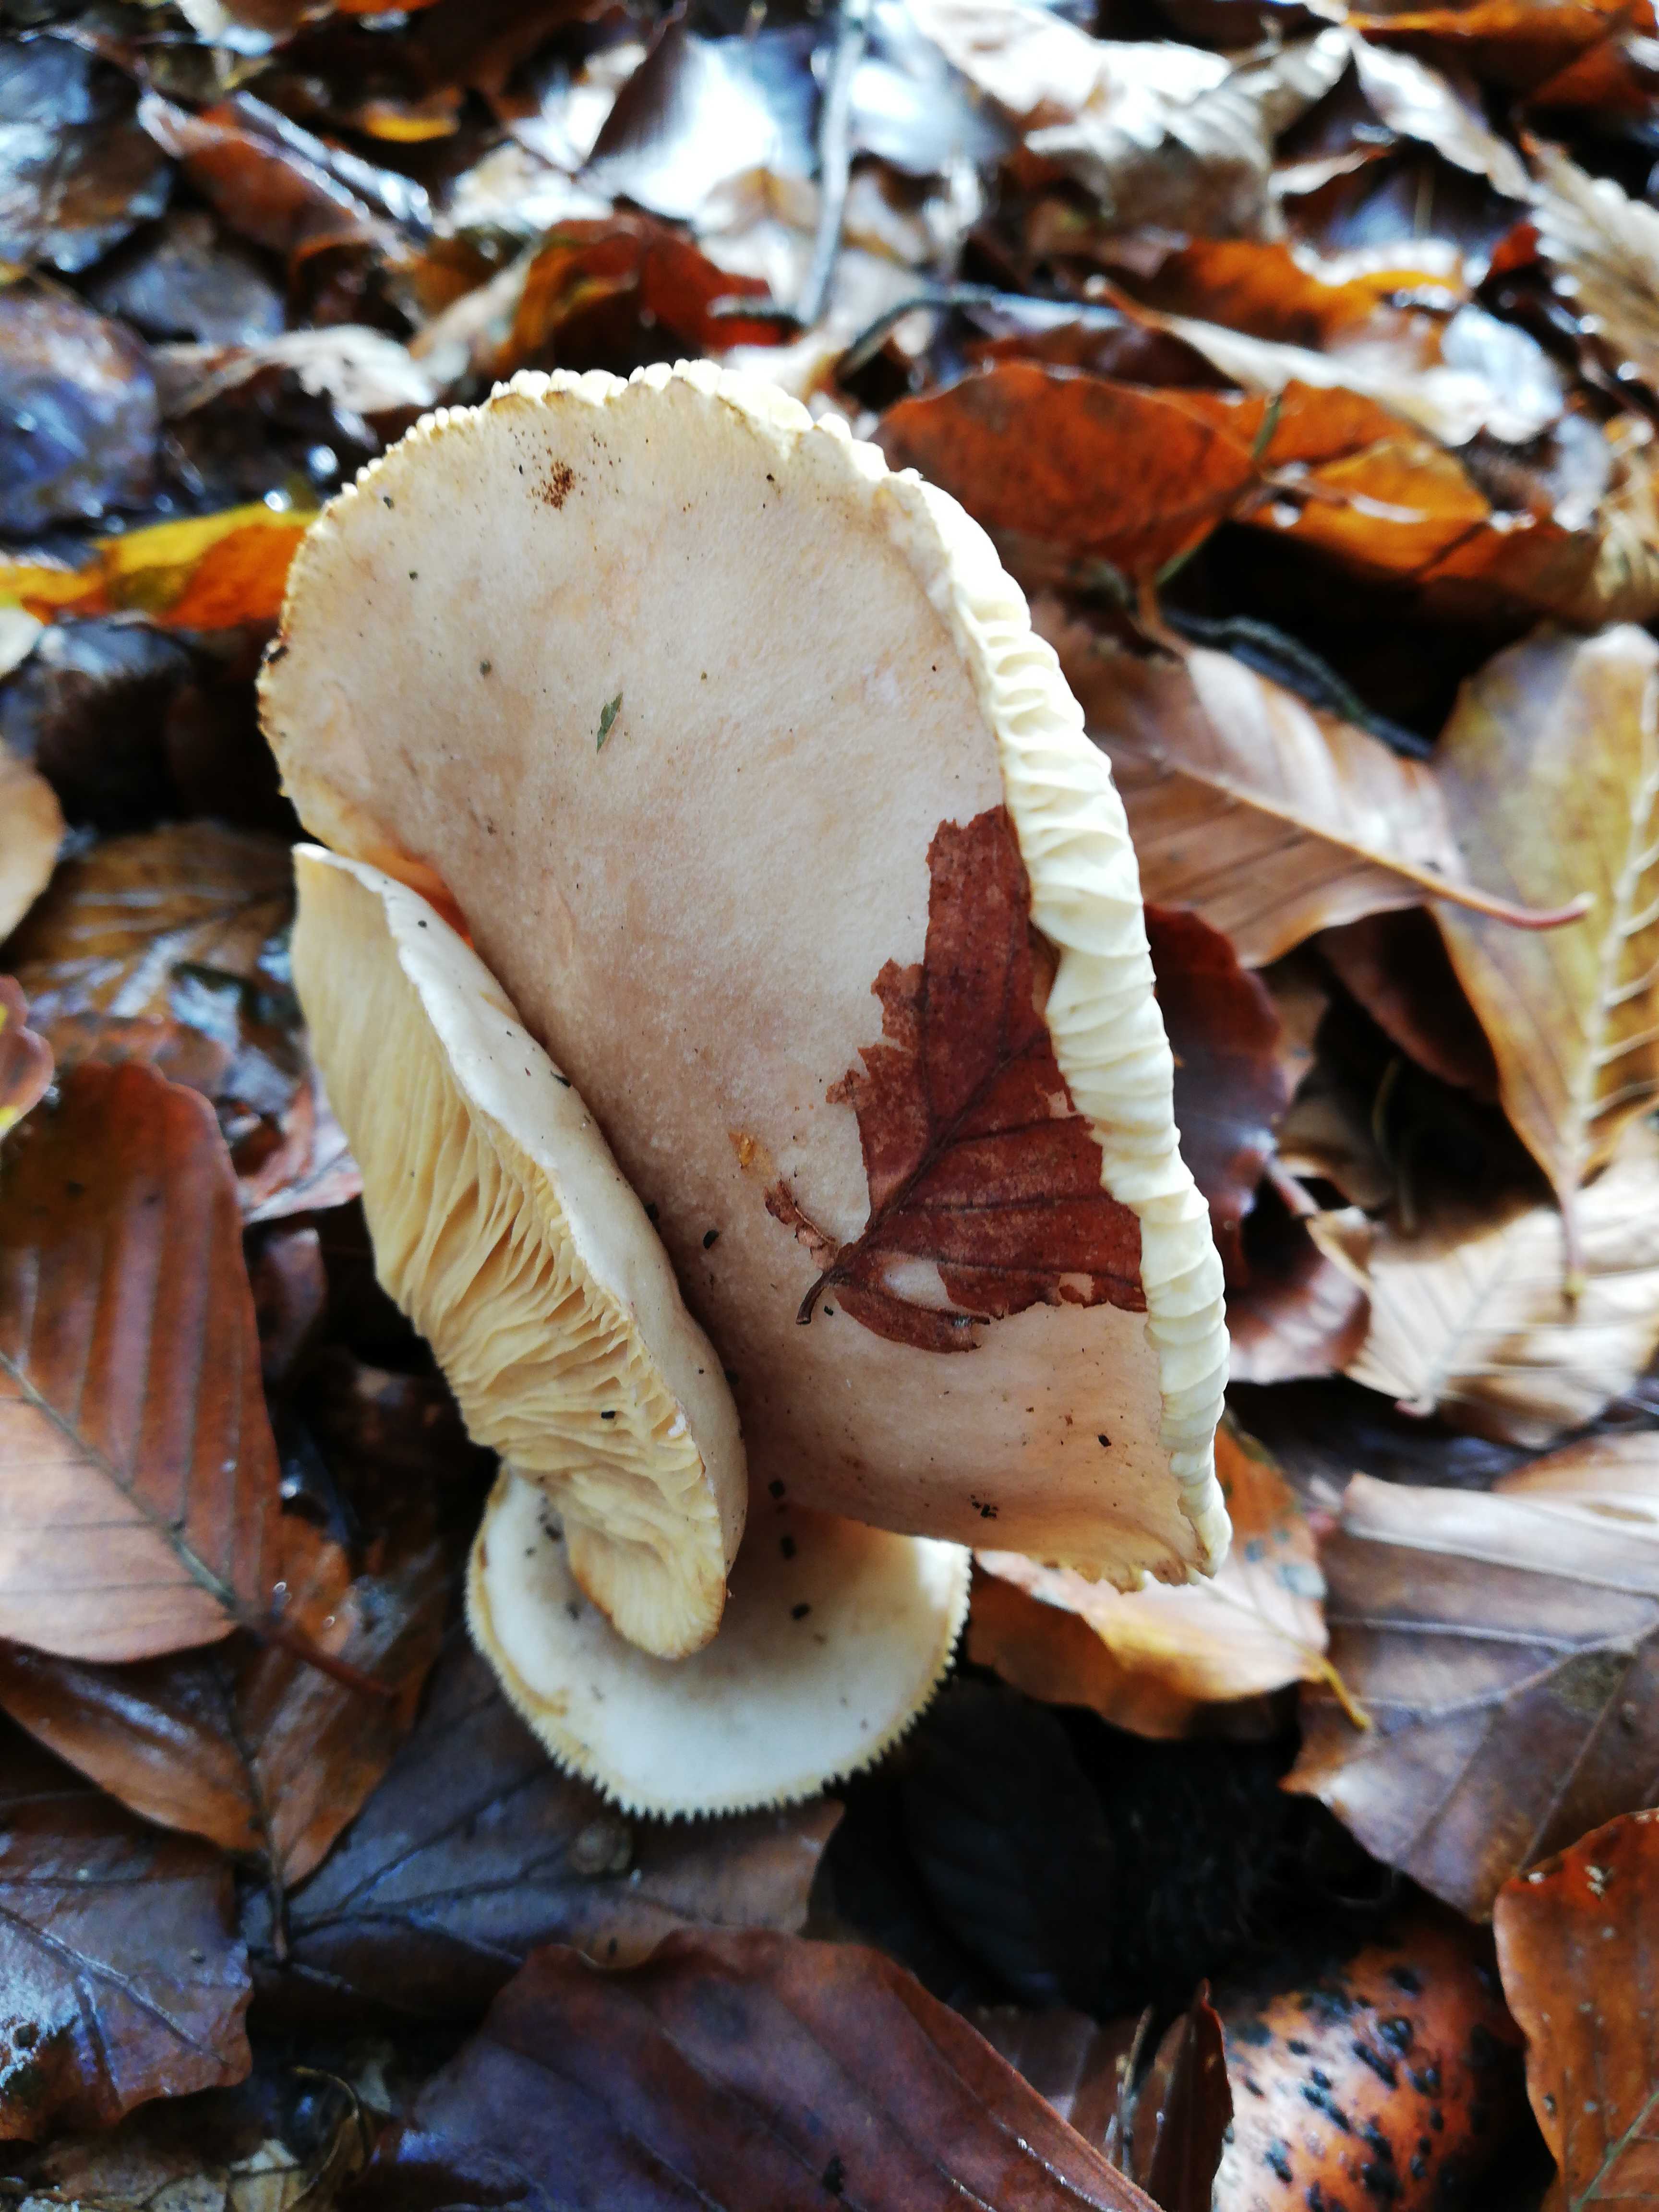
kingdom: Fungi
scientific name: Fungi
